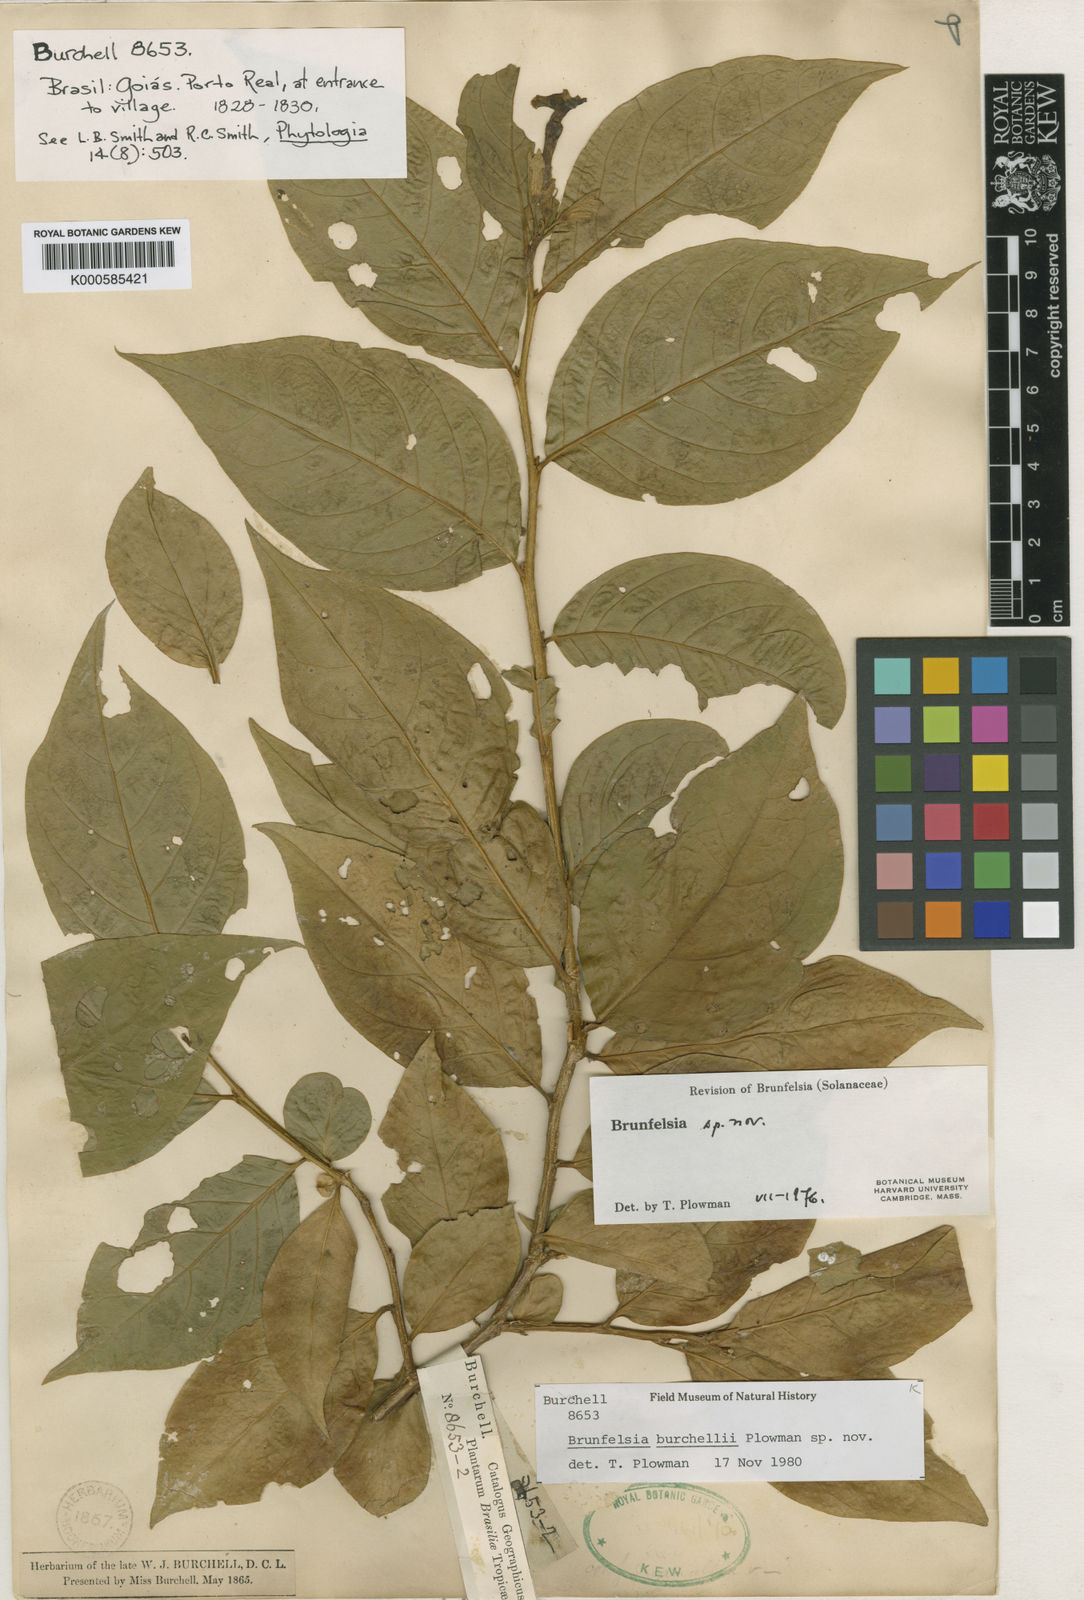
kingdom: Plantae
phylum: Tracheophyta
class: Magnoliopsida
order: Solanales
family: Solanaceae
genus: Brunfelsia
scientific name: Brunfelsia burchellii
